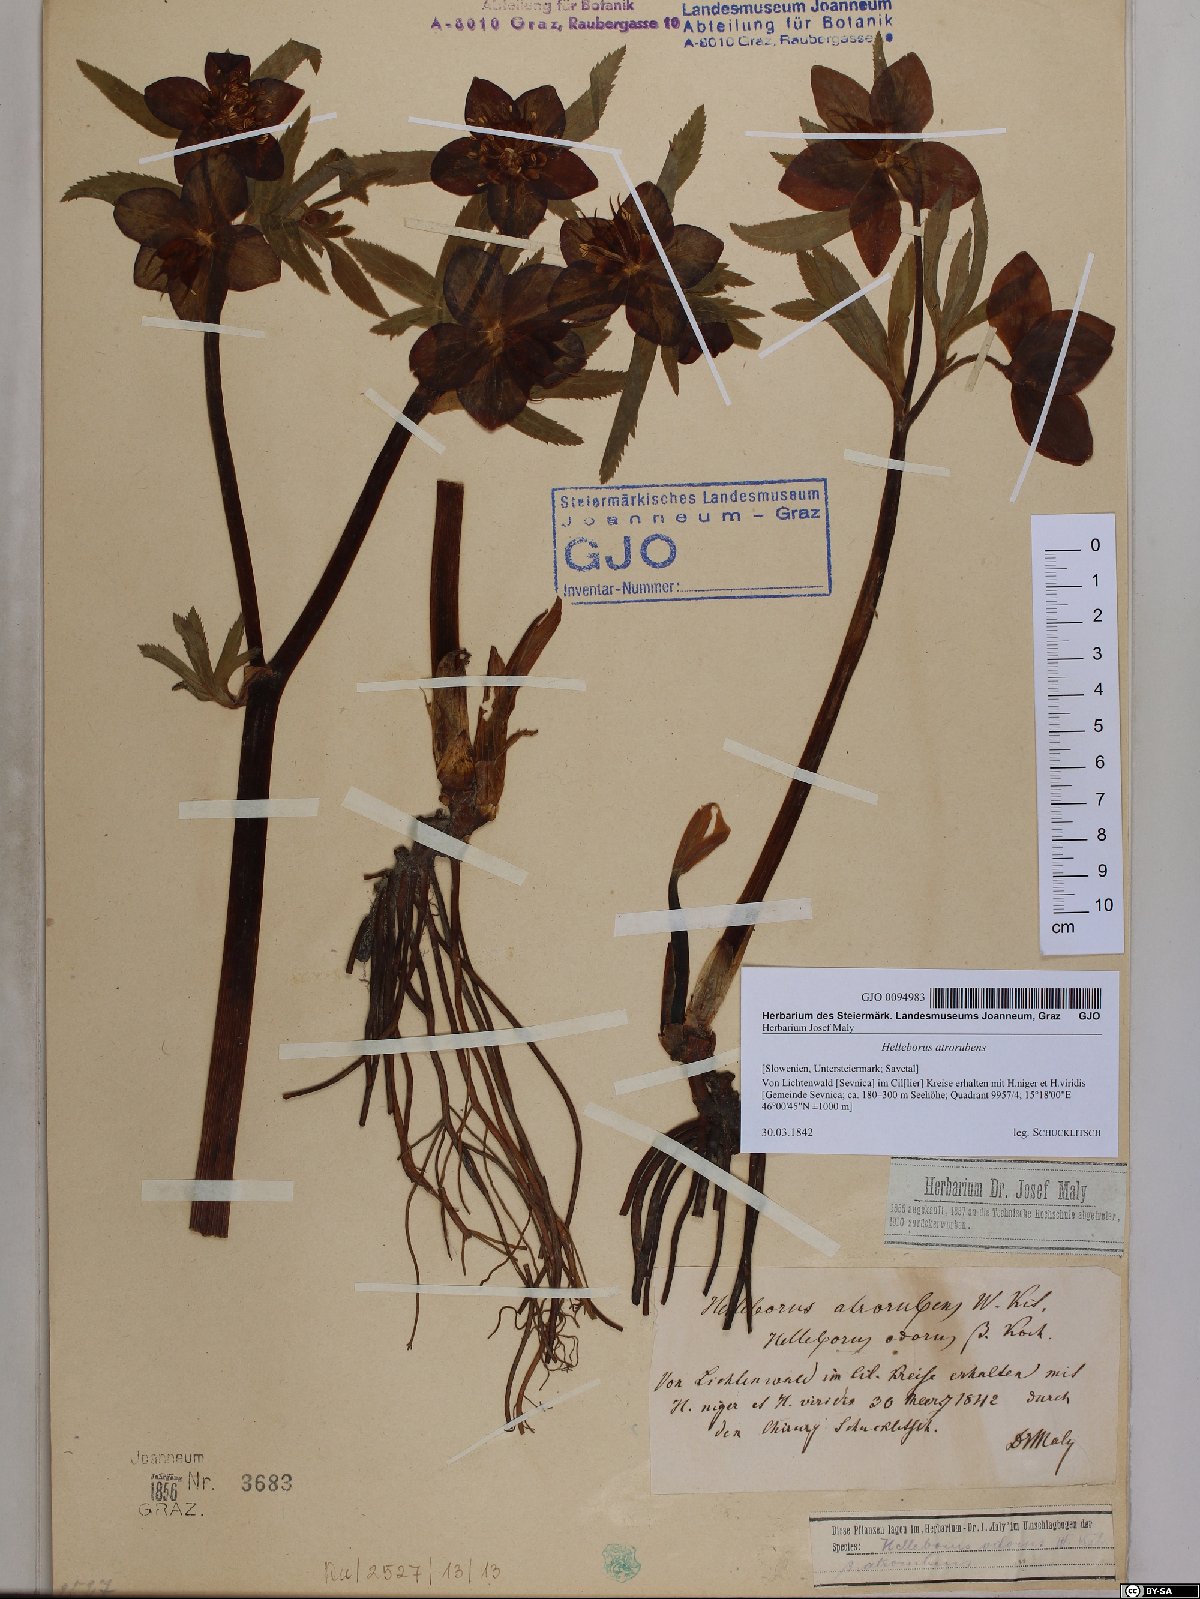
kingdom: Plantae
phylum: Tracheophyta
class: Magnoliopsida
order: Ranunculales
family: Ranunculaceae
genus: Helleborus
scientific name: Helleborus dumetorum
